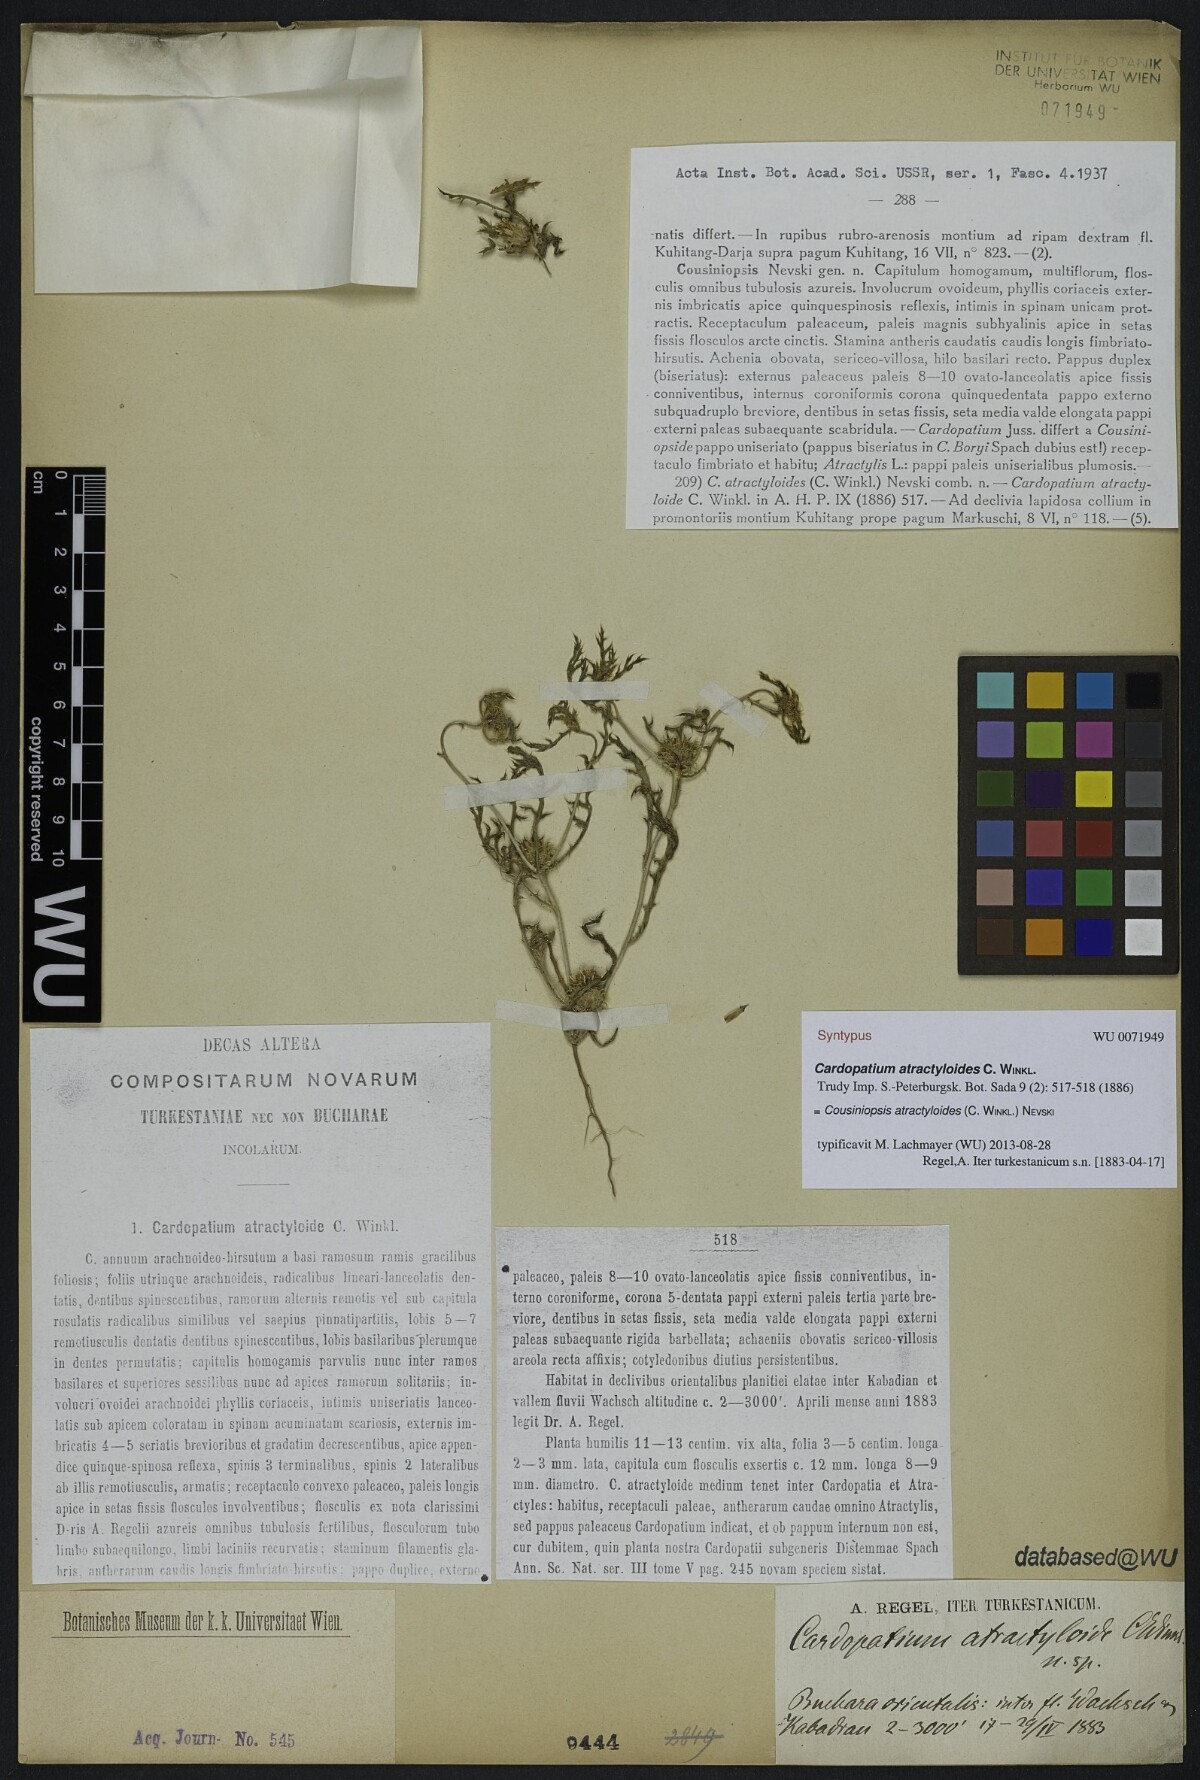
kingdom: Plantae
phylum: Tracheophyta
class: Magnoliopsida
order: Asterales
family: Asteraceae
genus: Cousiniopsis
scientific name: Cousiniopsis atractyloides
